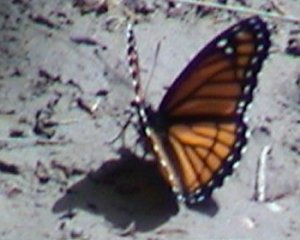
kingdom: Animalia
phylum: Arthropoda
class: Insecta
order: Lepidoptera
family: Nymphalidae
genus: Limenitis
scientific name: Limenitis archippus
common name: Viceroy
